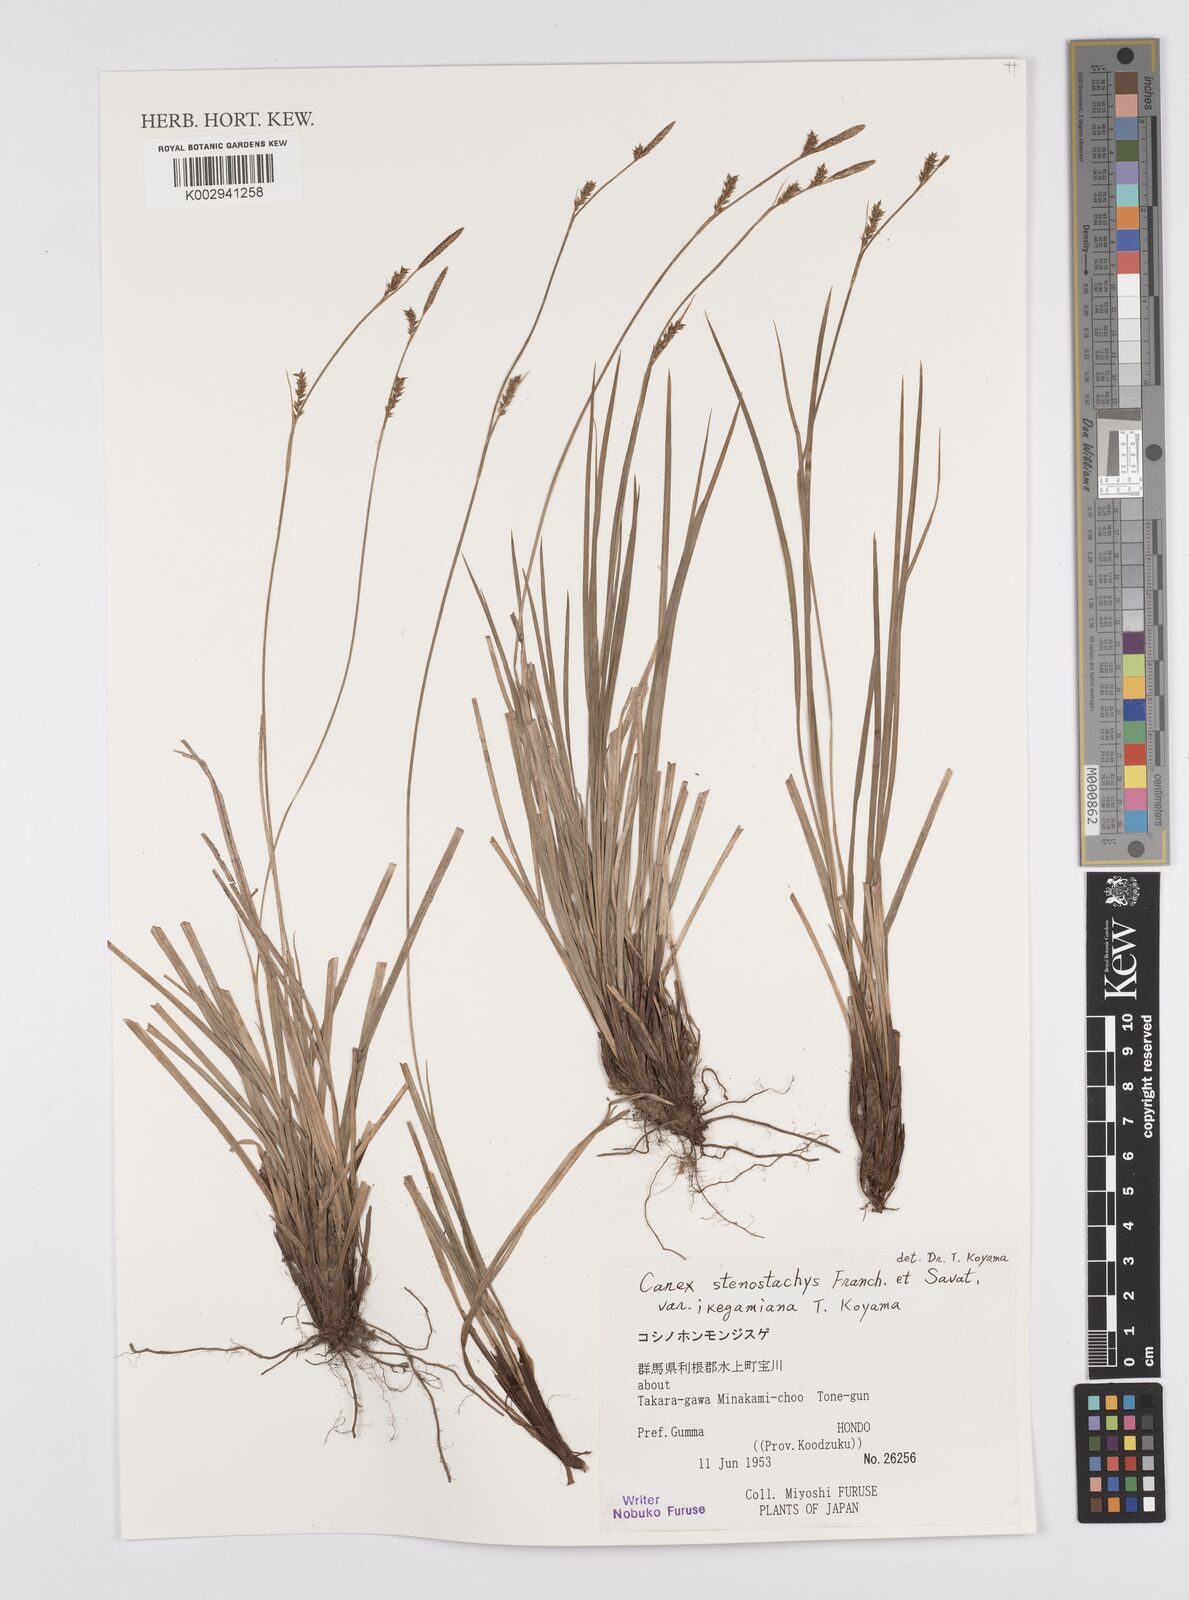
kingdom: Plantae
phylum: Tracheophyta
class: Liliopsida
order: Poales
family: Cyperaceae
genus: Carex
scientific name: Carex pisiformis
